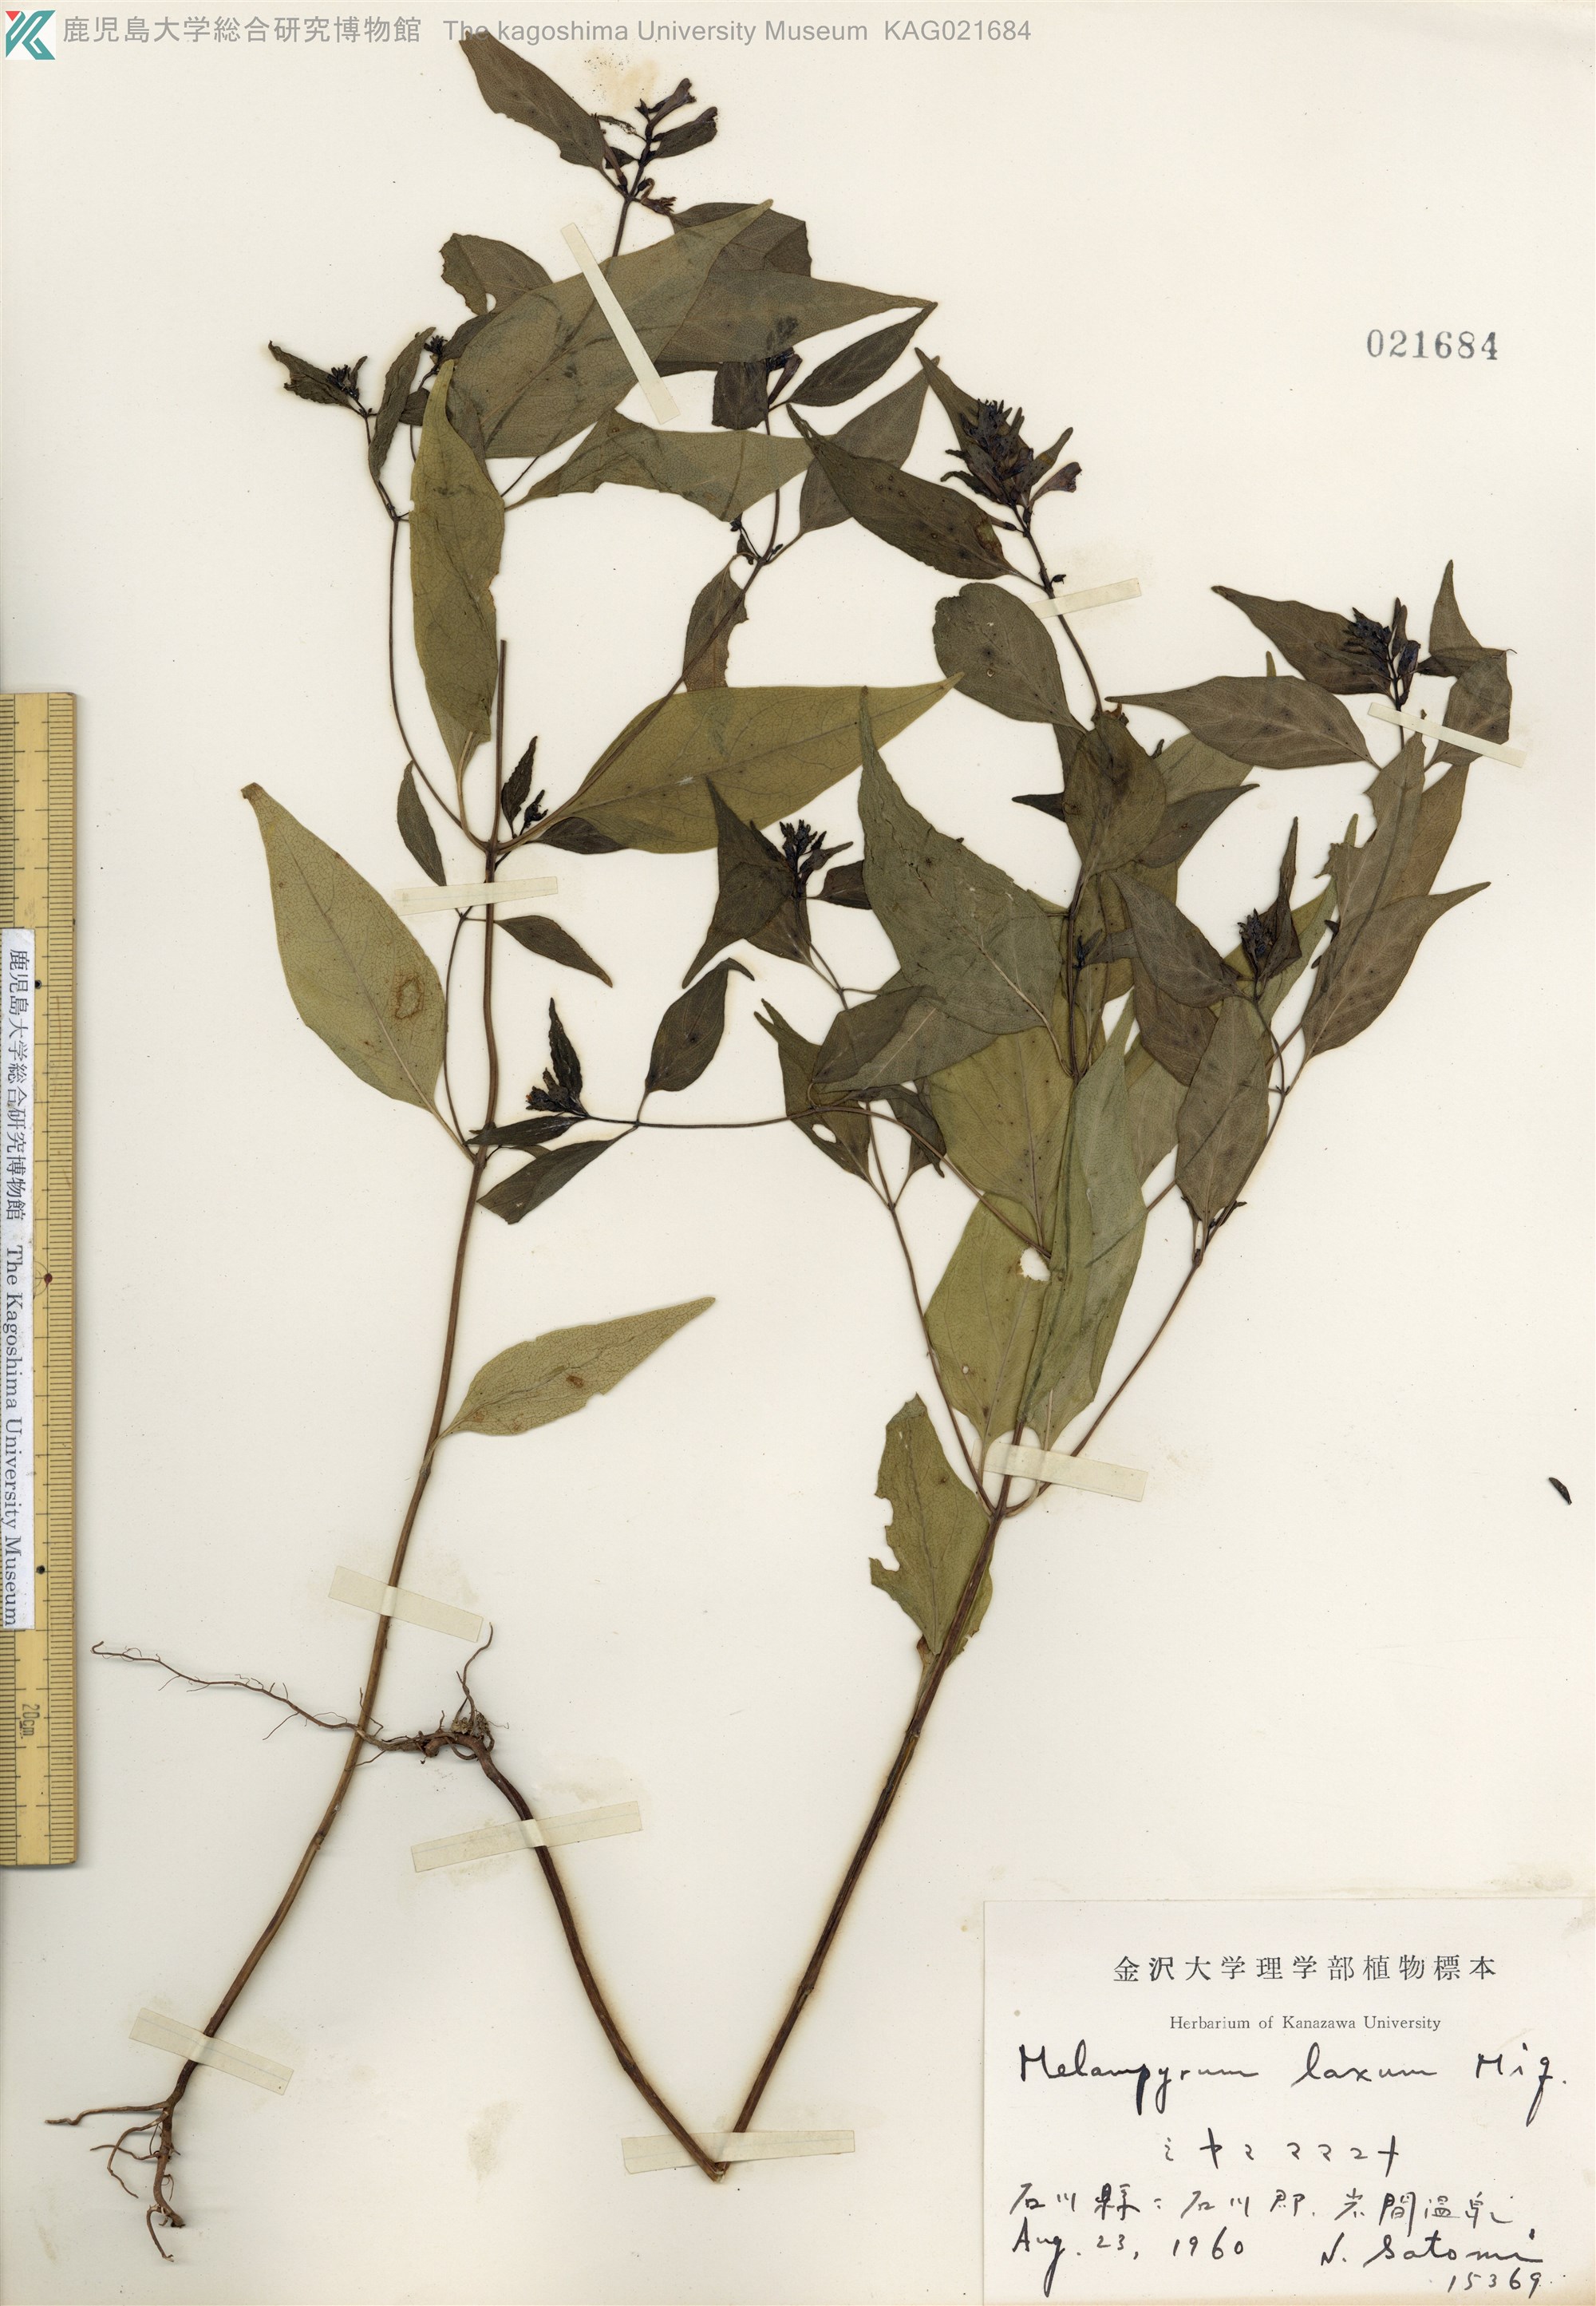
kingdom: Plantae
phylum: Tracheophyta
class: Magnoliopsida
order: Lamiales
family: Orobanchaceae
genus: Melampyrum
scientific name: Melampyrum laxum
